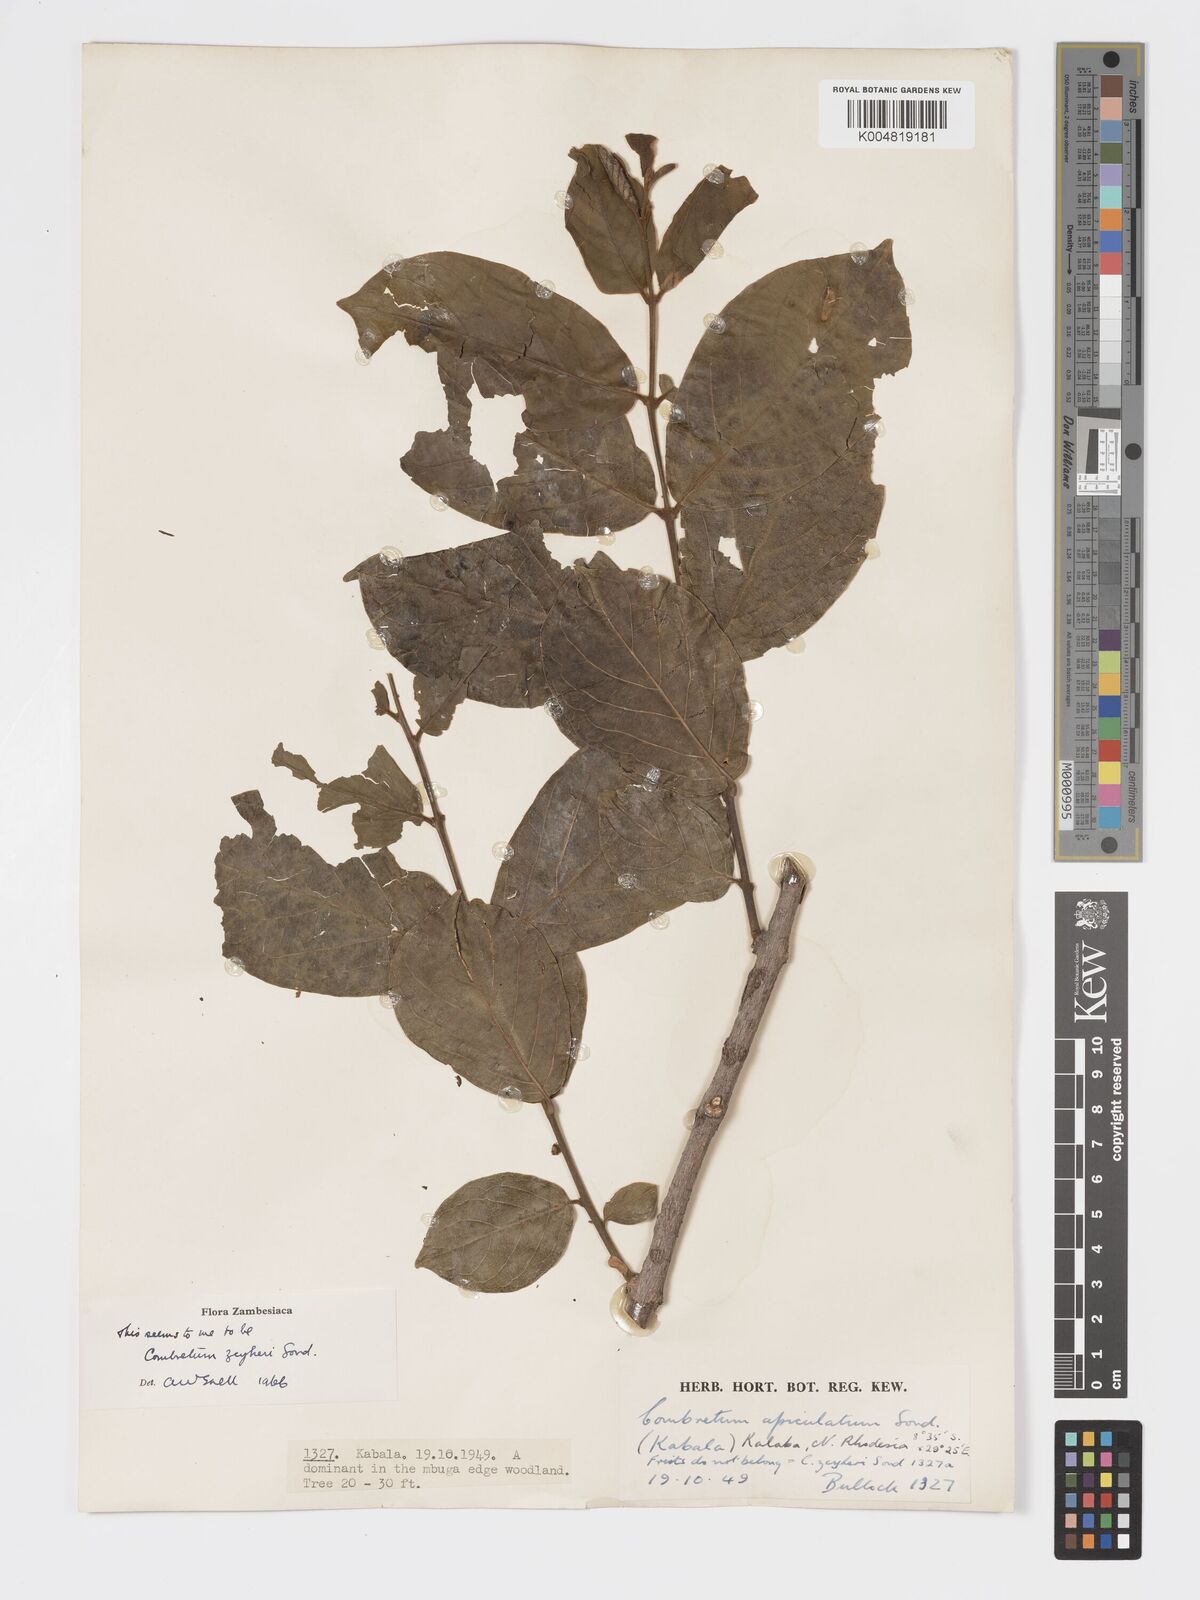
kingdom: Plantae
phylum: Tracheophyta
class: Magnoliopsida
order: Myrtales
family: Combretaceae
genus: Combretum
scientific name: Combretum zeyheri
